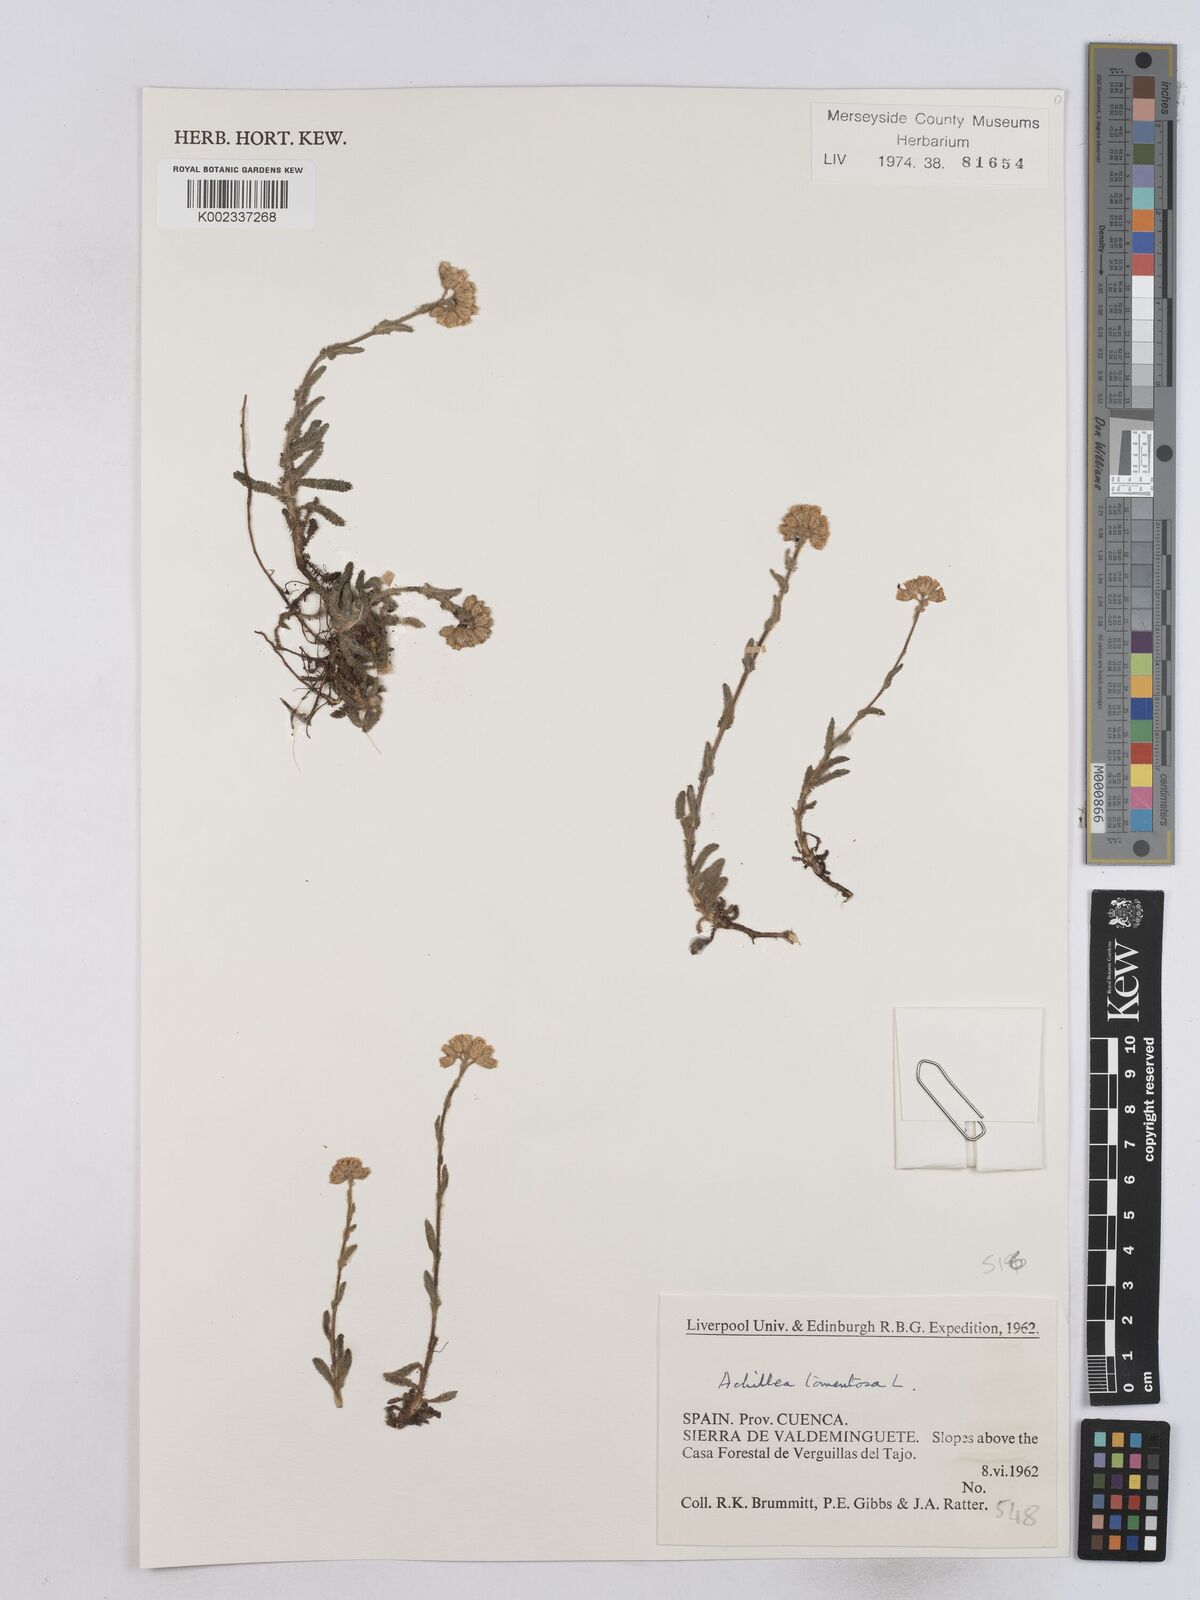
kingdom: Plantae
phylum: Tracheophyta
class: Magnoliopsida
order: Asterales
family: Asteraceae
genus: Achillea
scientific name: Achillea tomentosa
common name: Yellow milfoil
